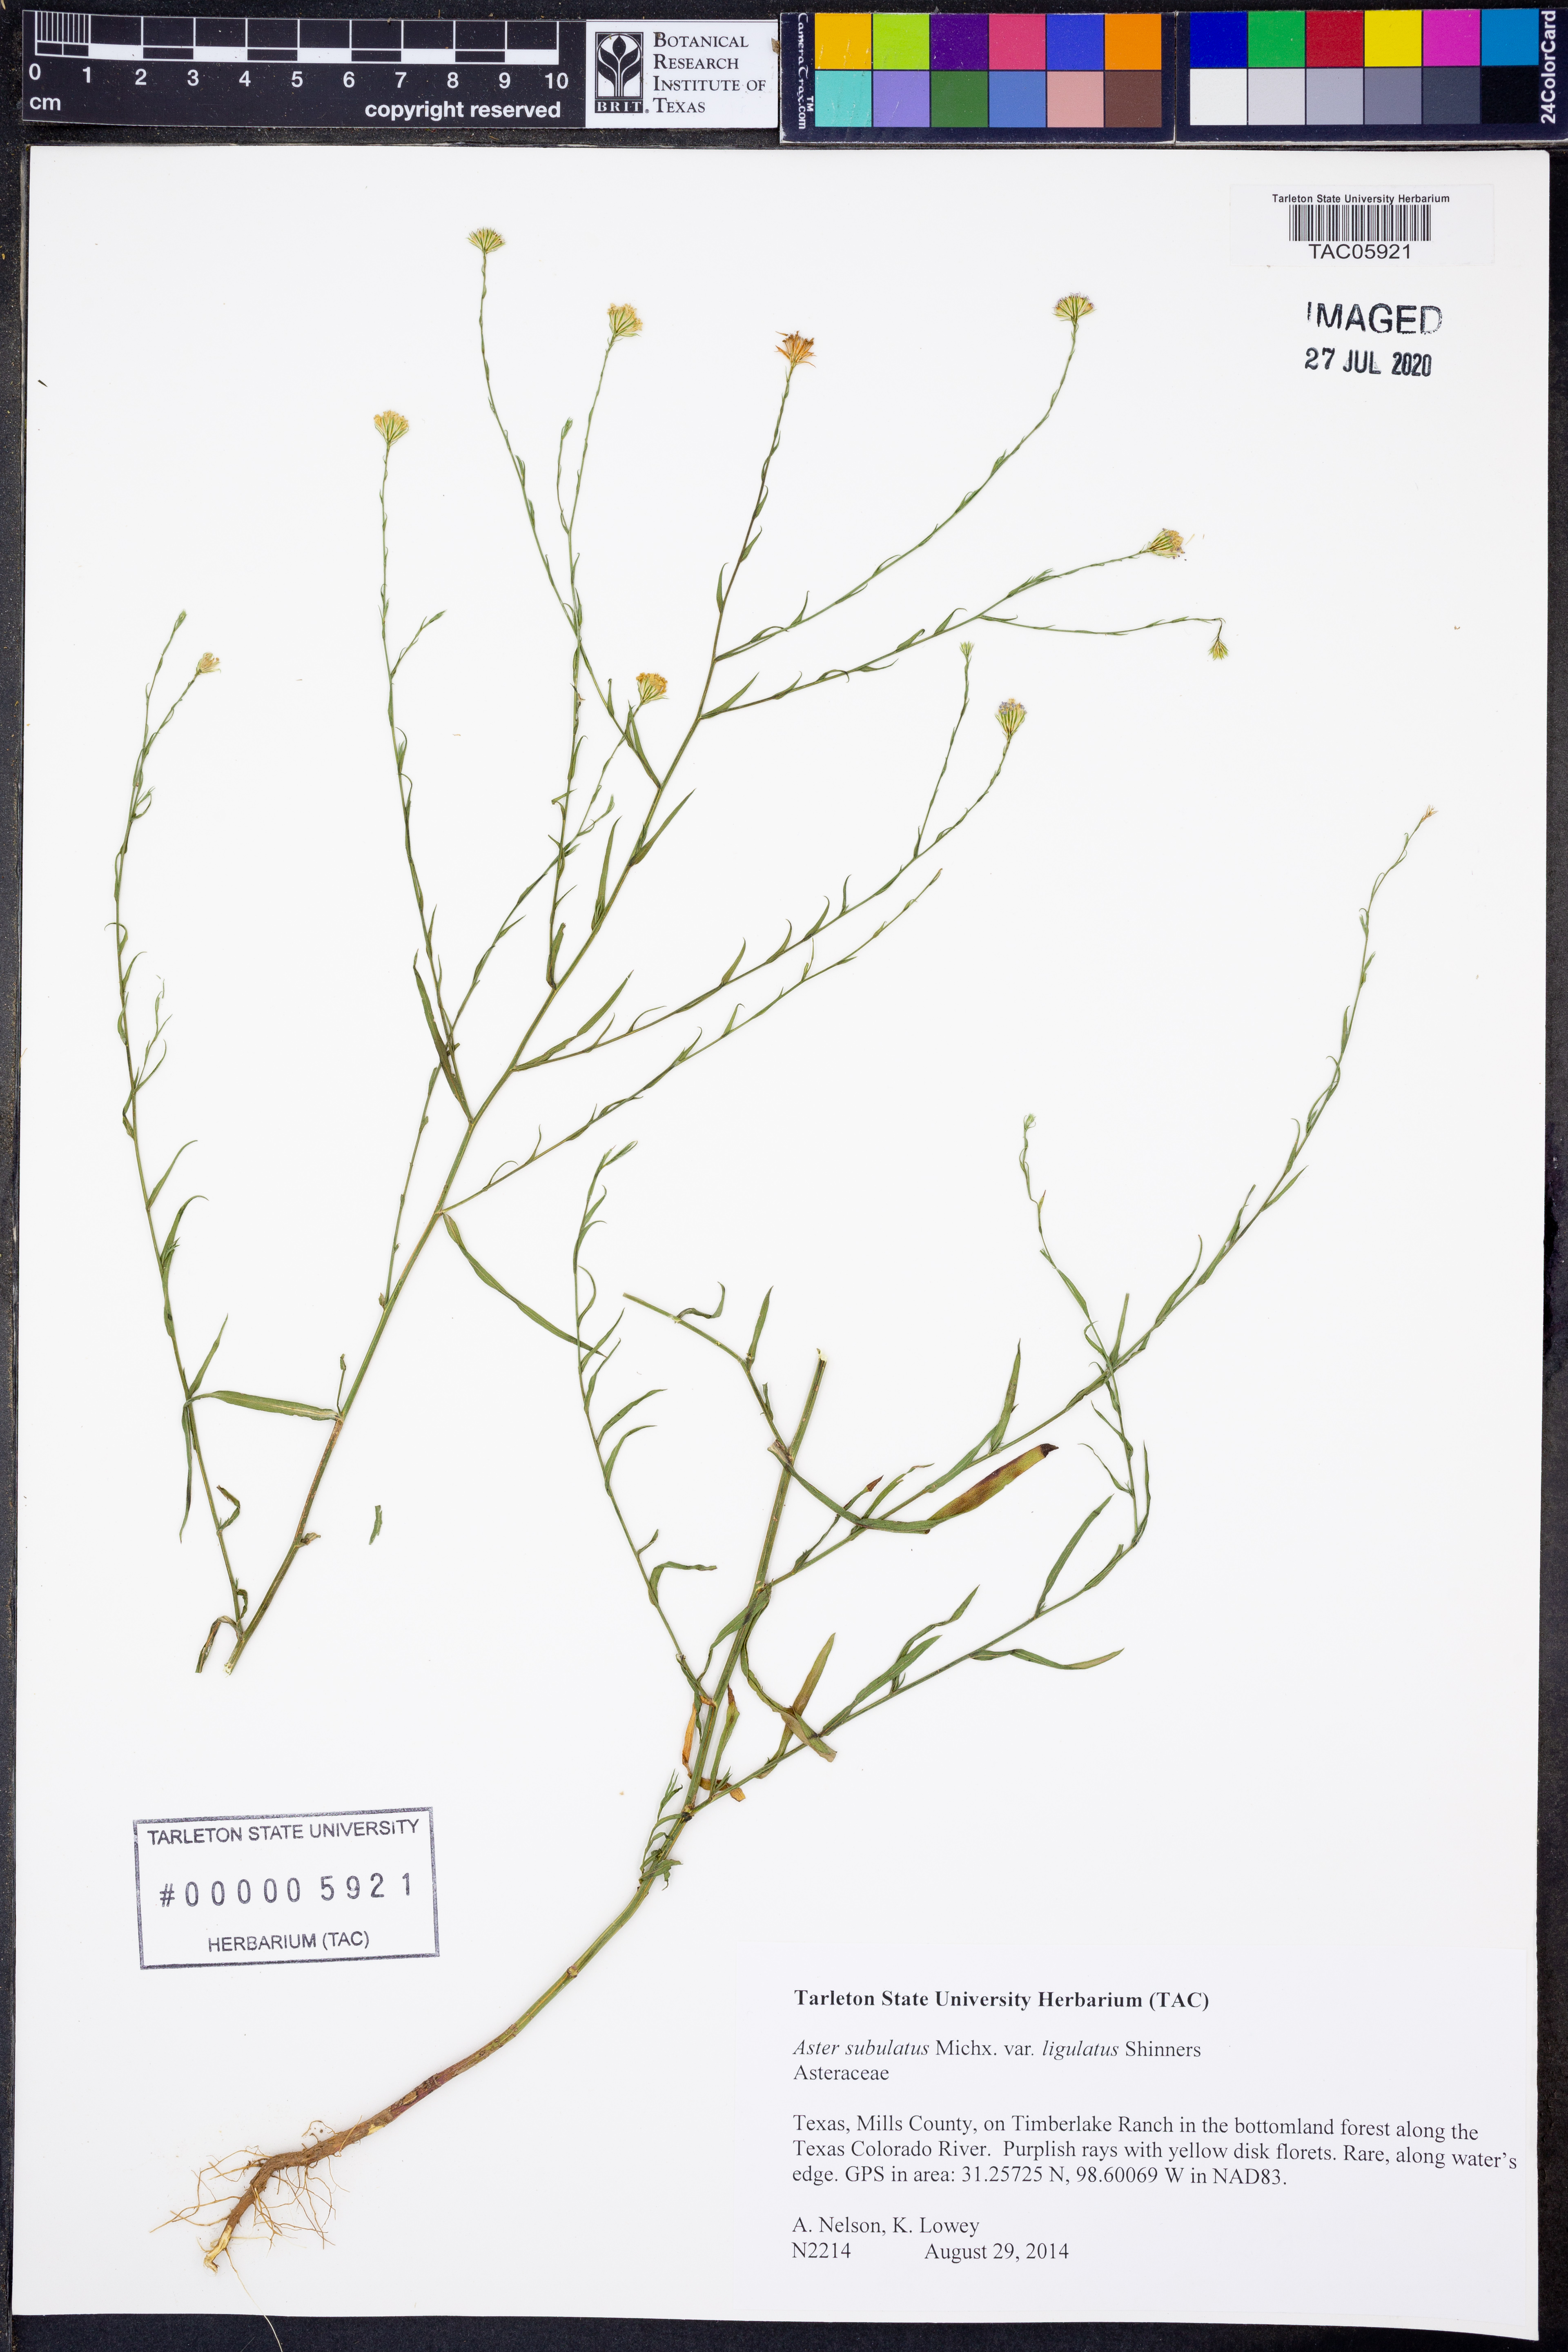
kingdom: Plantae
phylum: Tracheophyta
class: Magnoliopsida
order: Asterales
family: Asteraceae
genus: Symphyotrichum
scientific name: Symphyotrichum divaricatum
